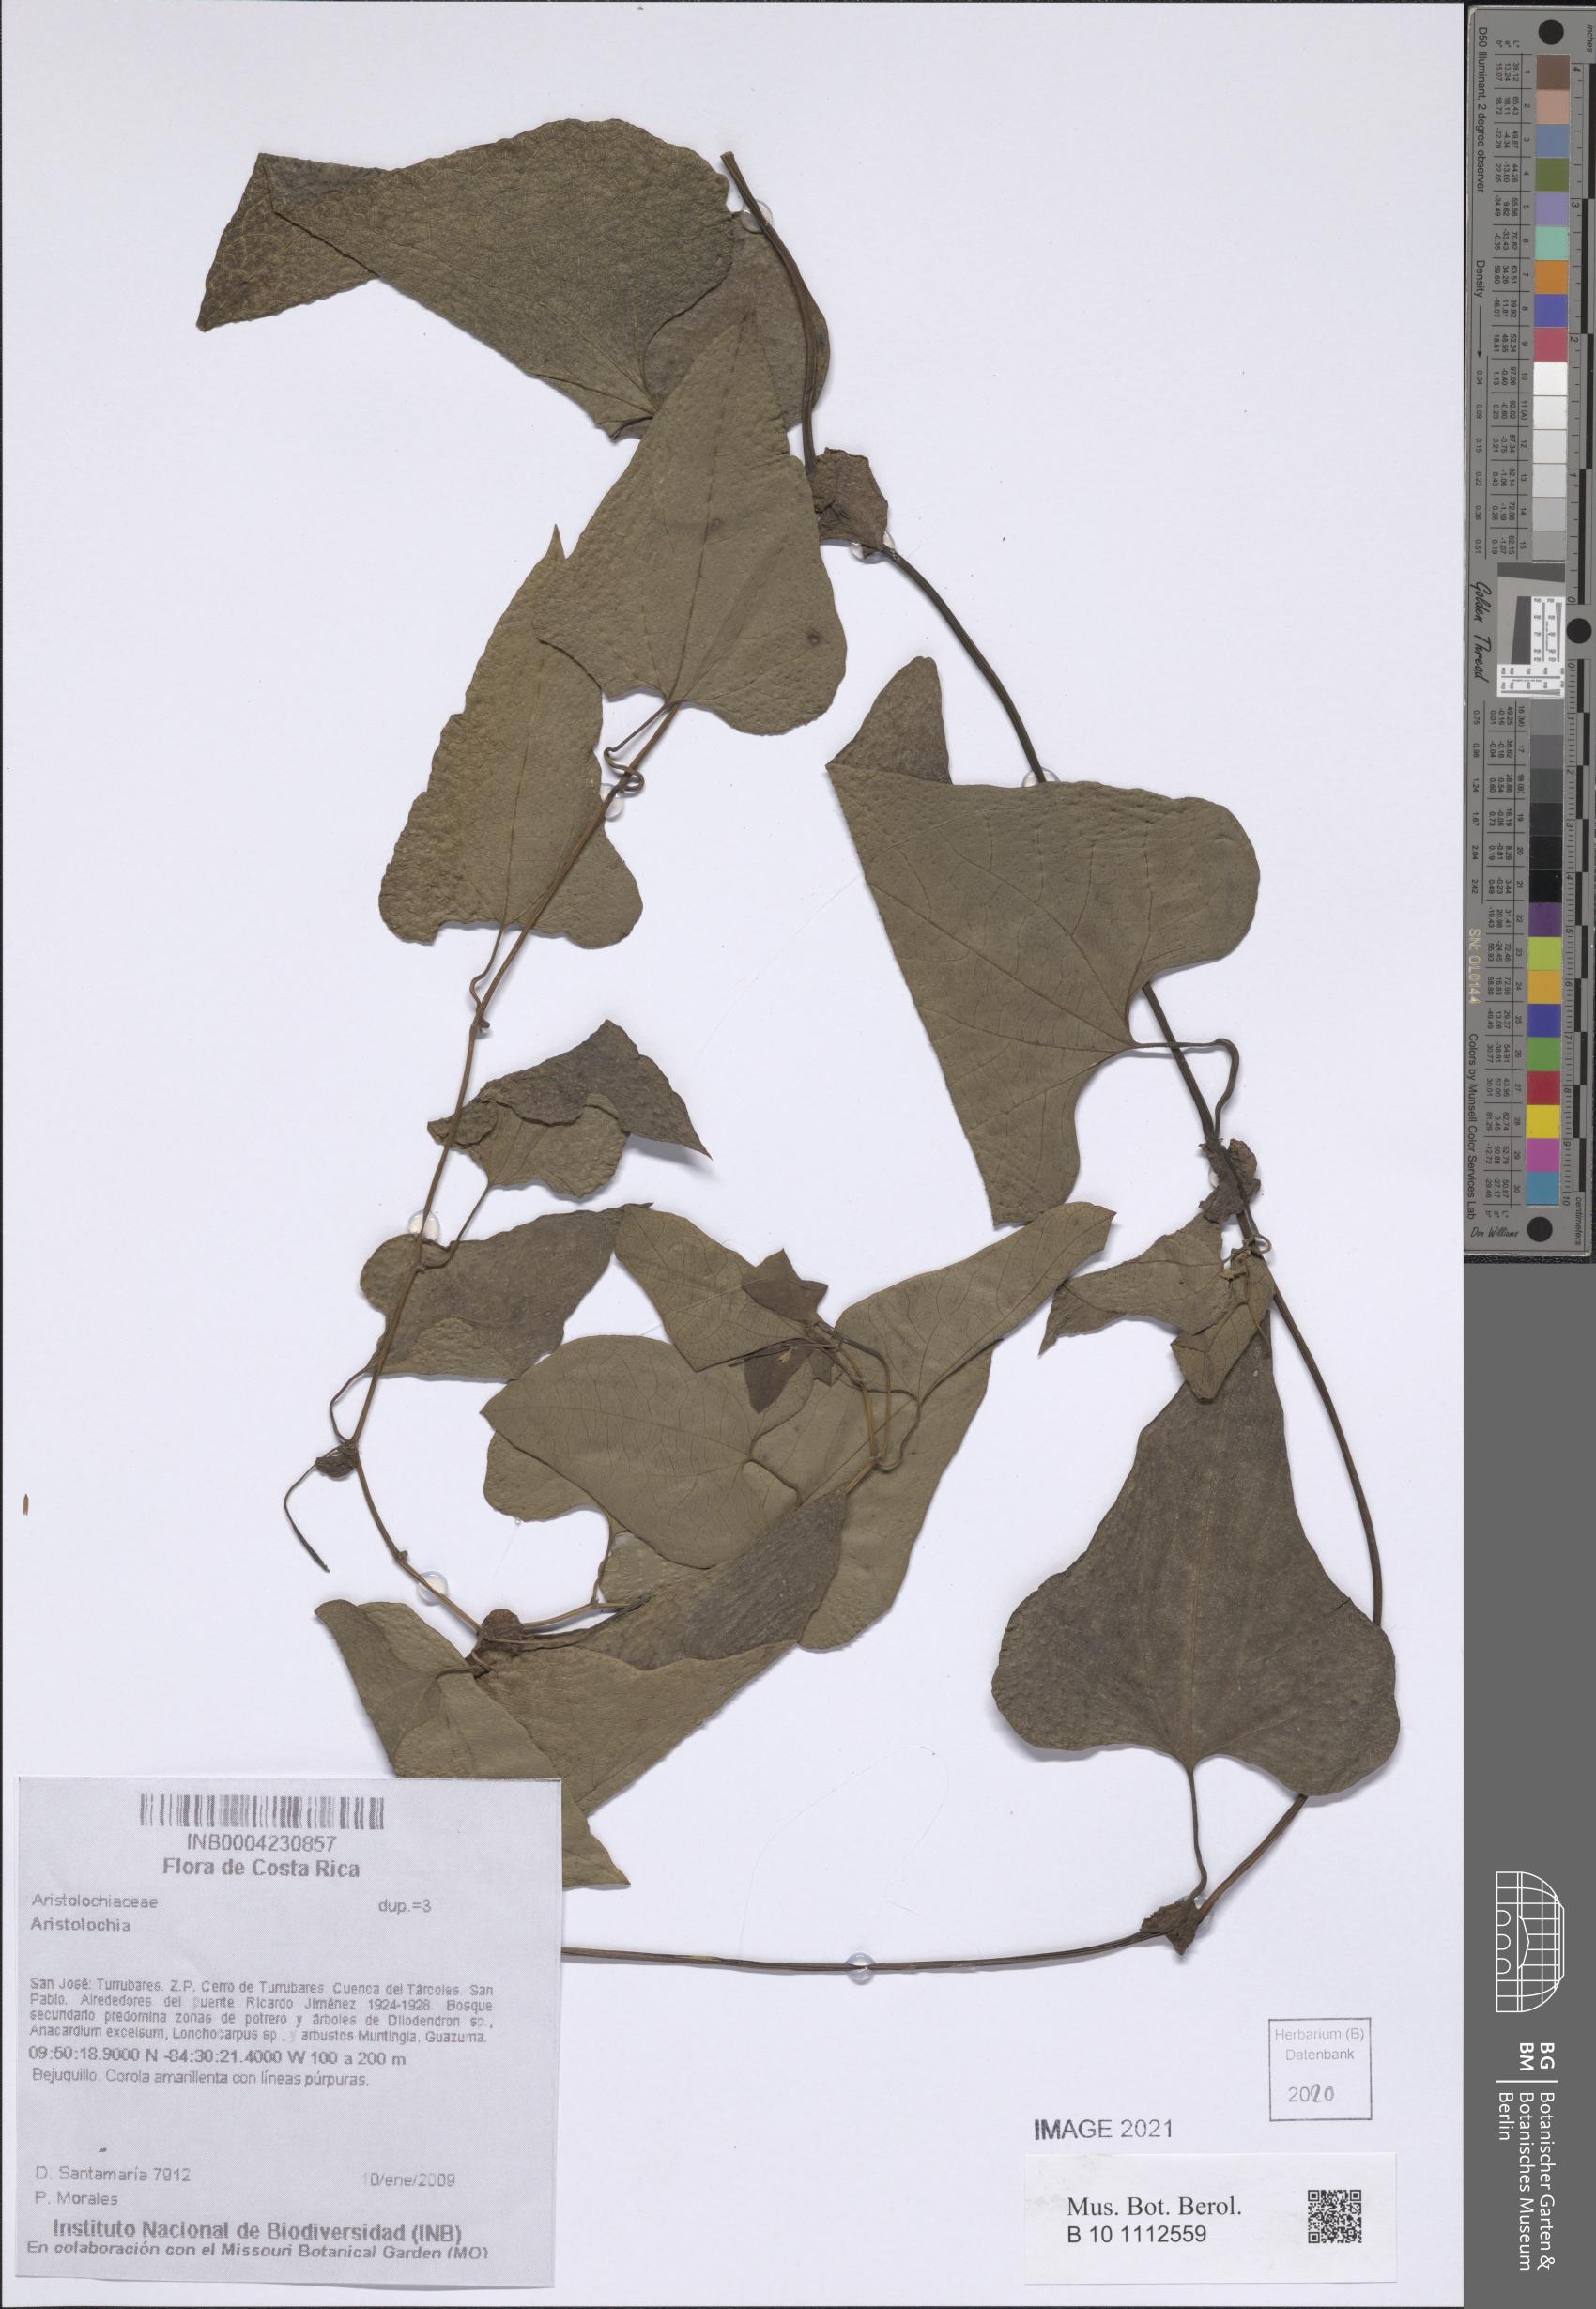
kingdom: Plantae
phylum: Tracheophyta
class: Magnoliopsida
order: Piperales
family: Aristolochiaceae
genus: Aristolochia
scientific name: Aristolochia
